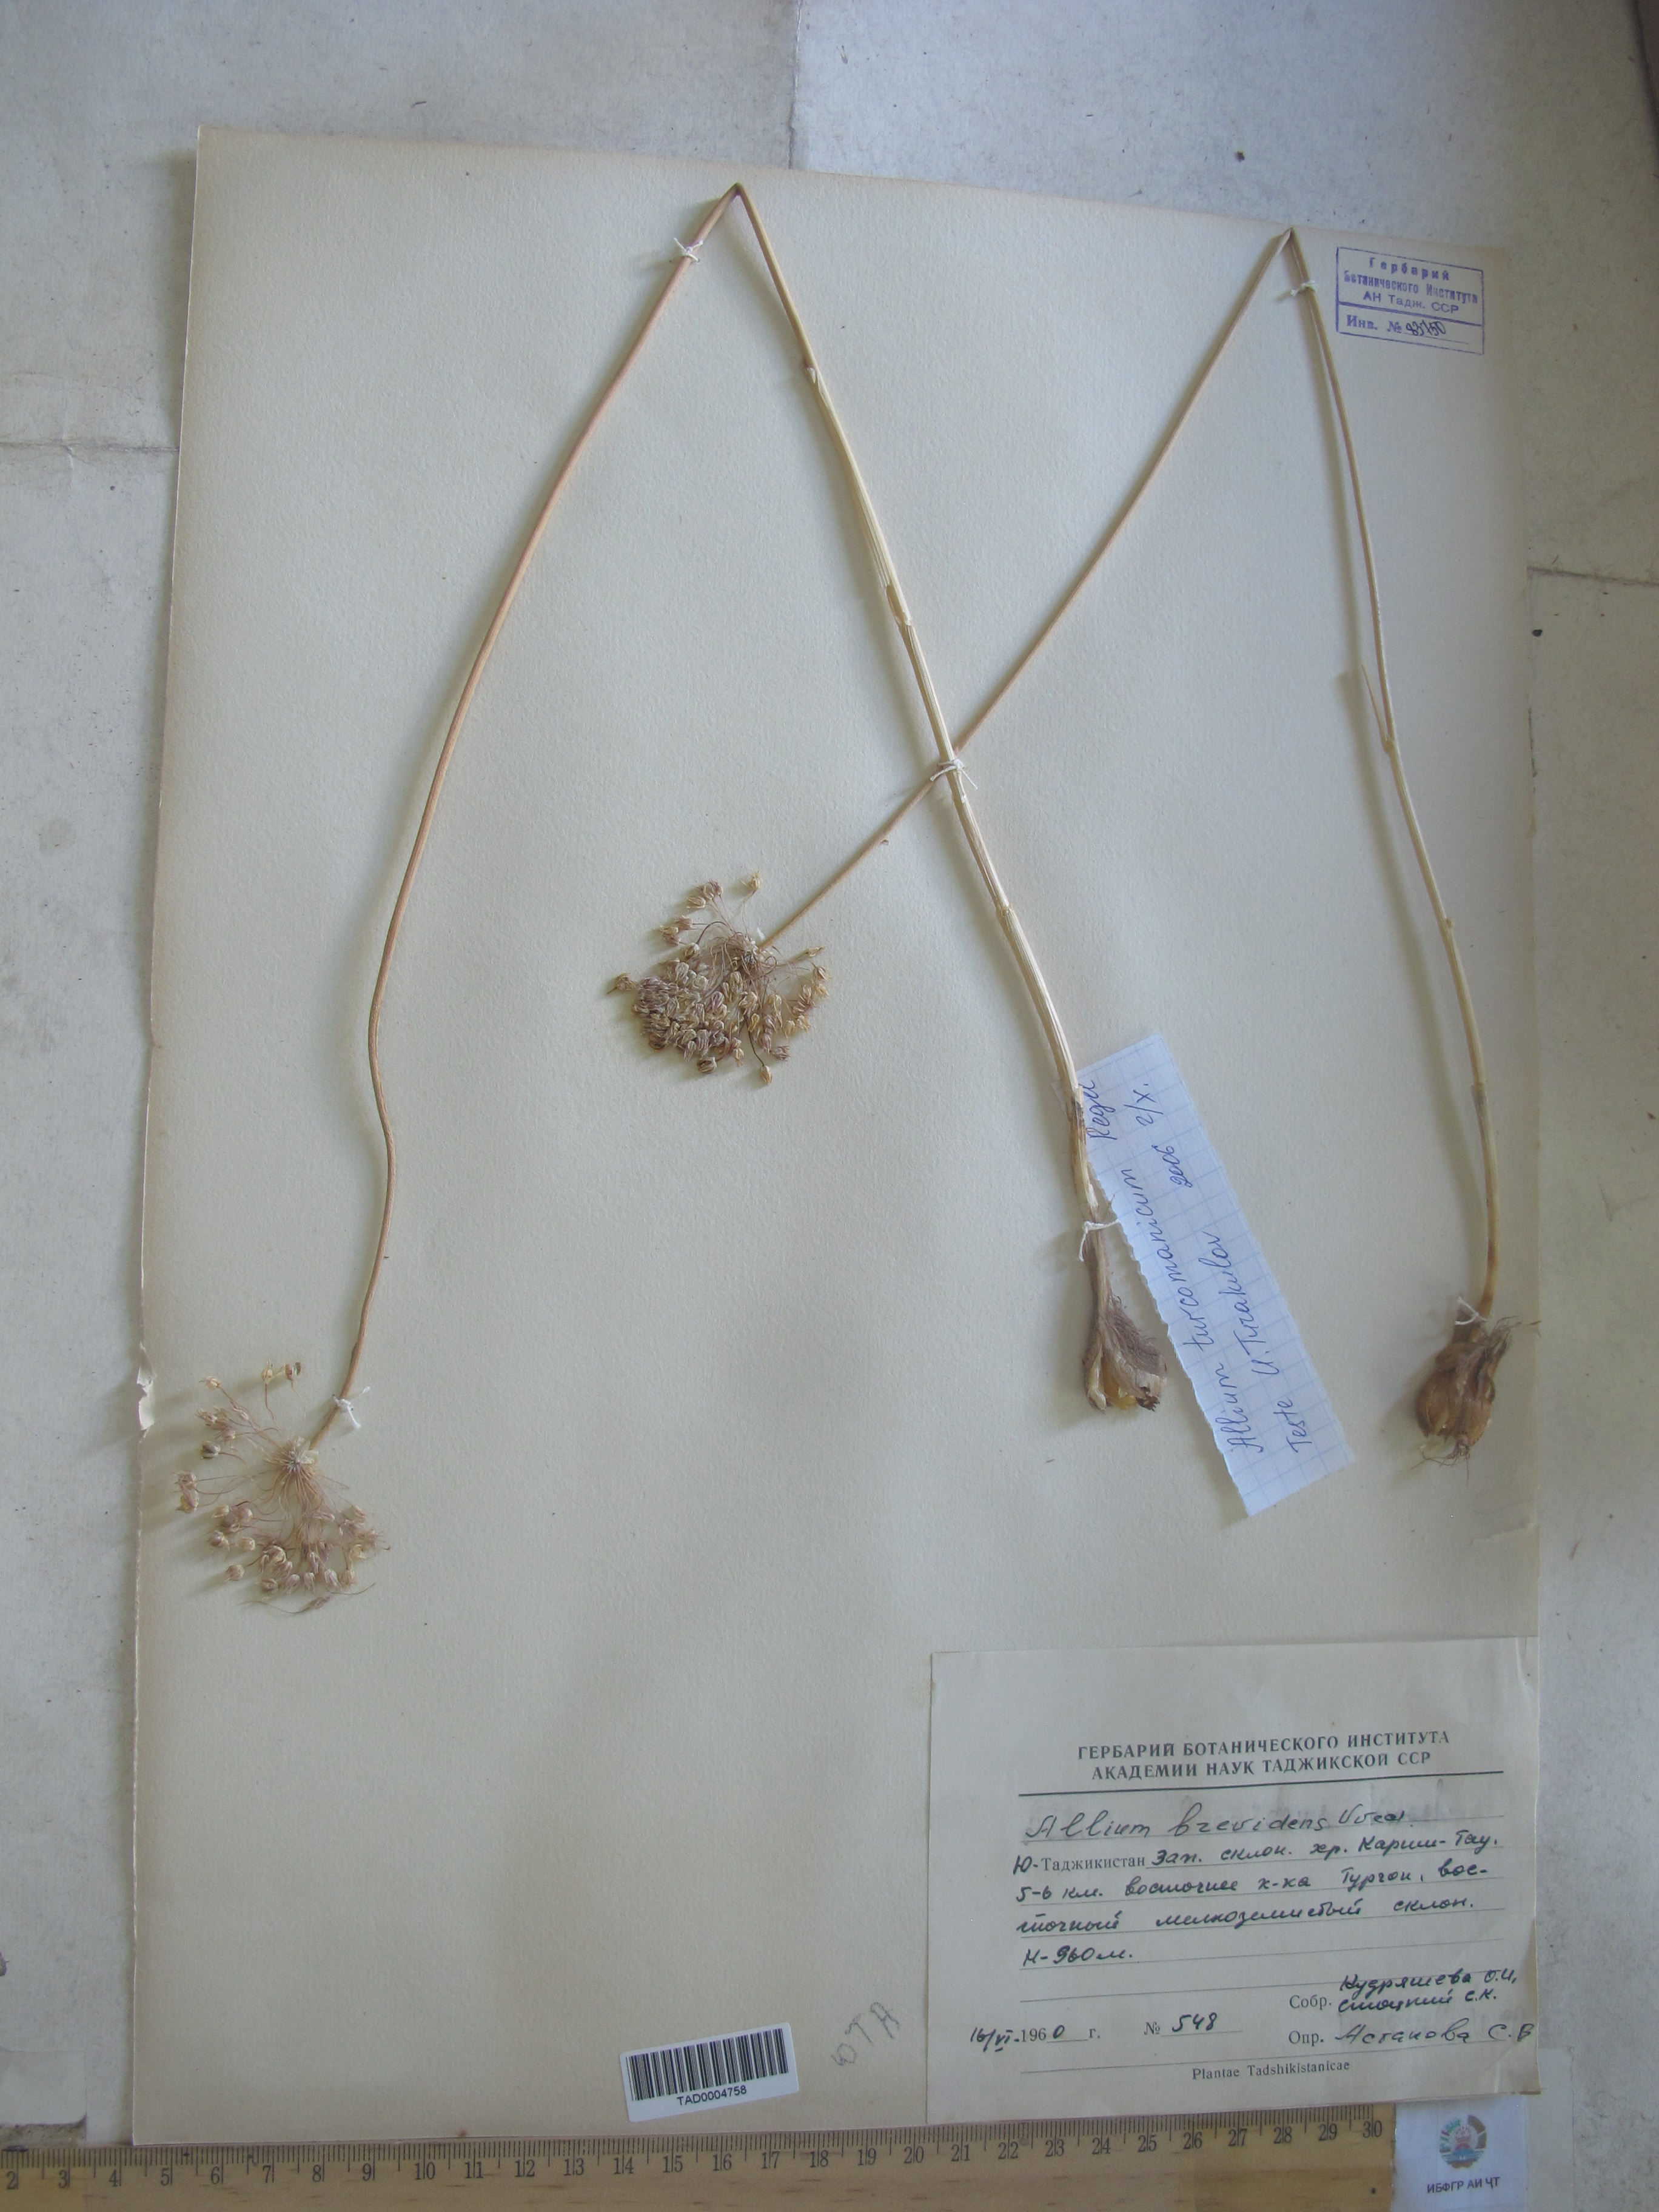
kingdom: Plantae
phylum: Tracheophyta
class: Liliopsida
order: Asparagales
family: Amaryllidaceae
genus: Allium
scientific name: Allium turcomanicum
